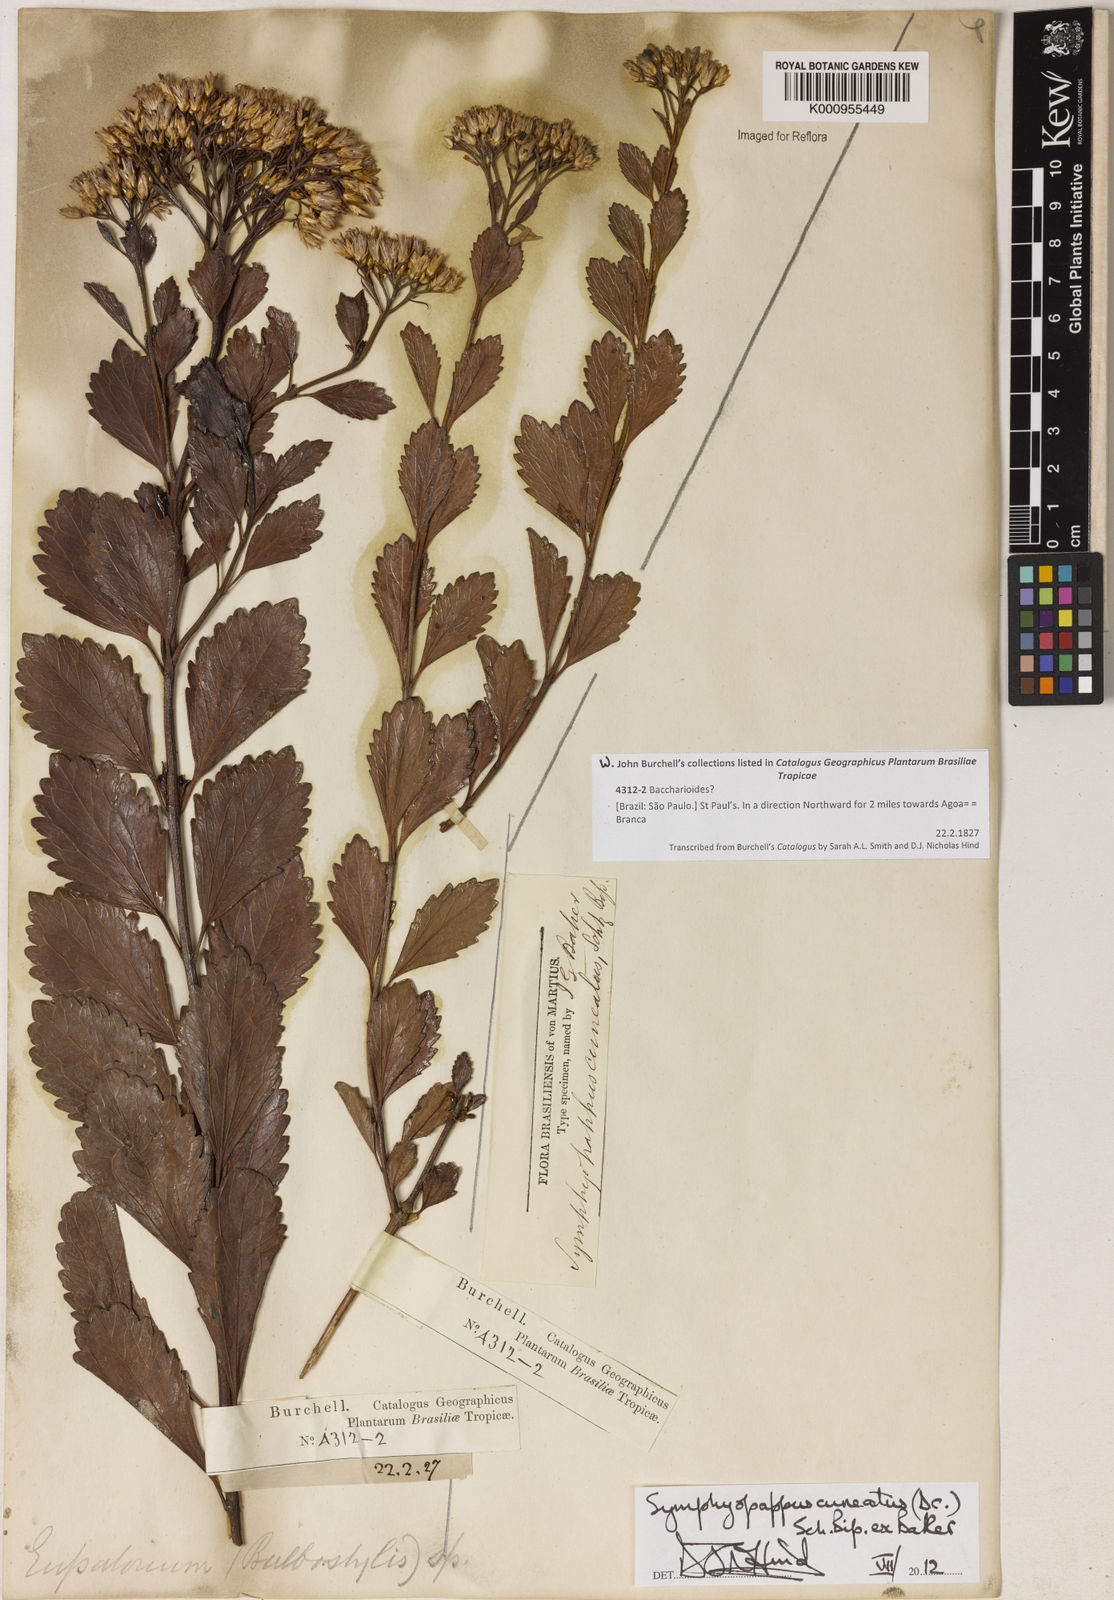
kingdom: Plantae
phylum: Tracheophyta
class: Magnoliopsida
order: Asterales
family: Asteraceae
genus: Symphyopappus
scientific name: Symphyopappus cuneatus
